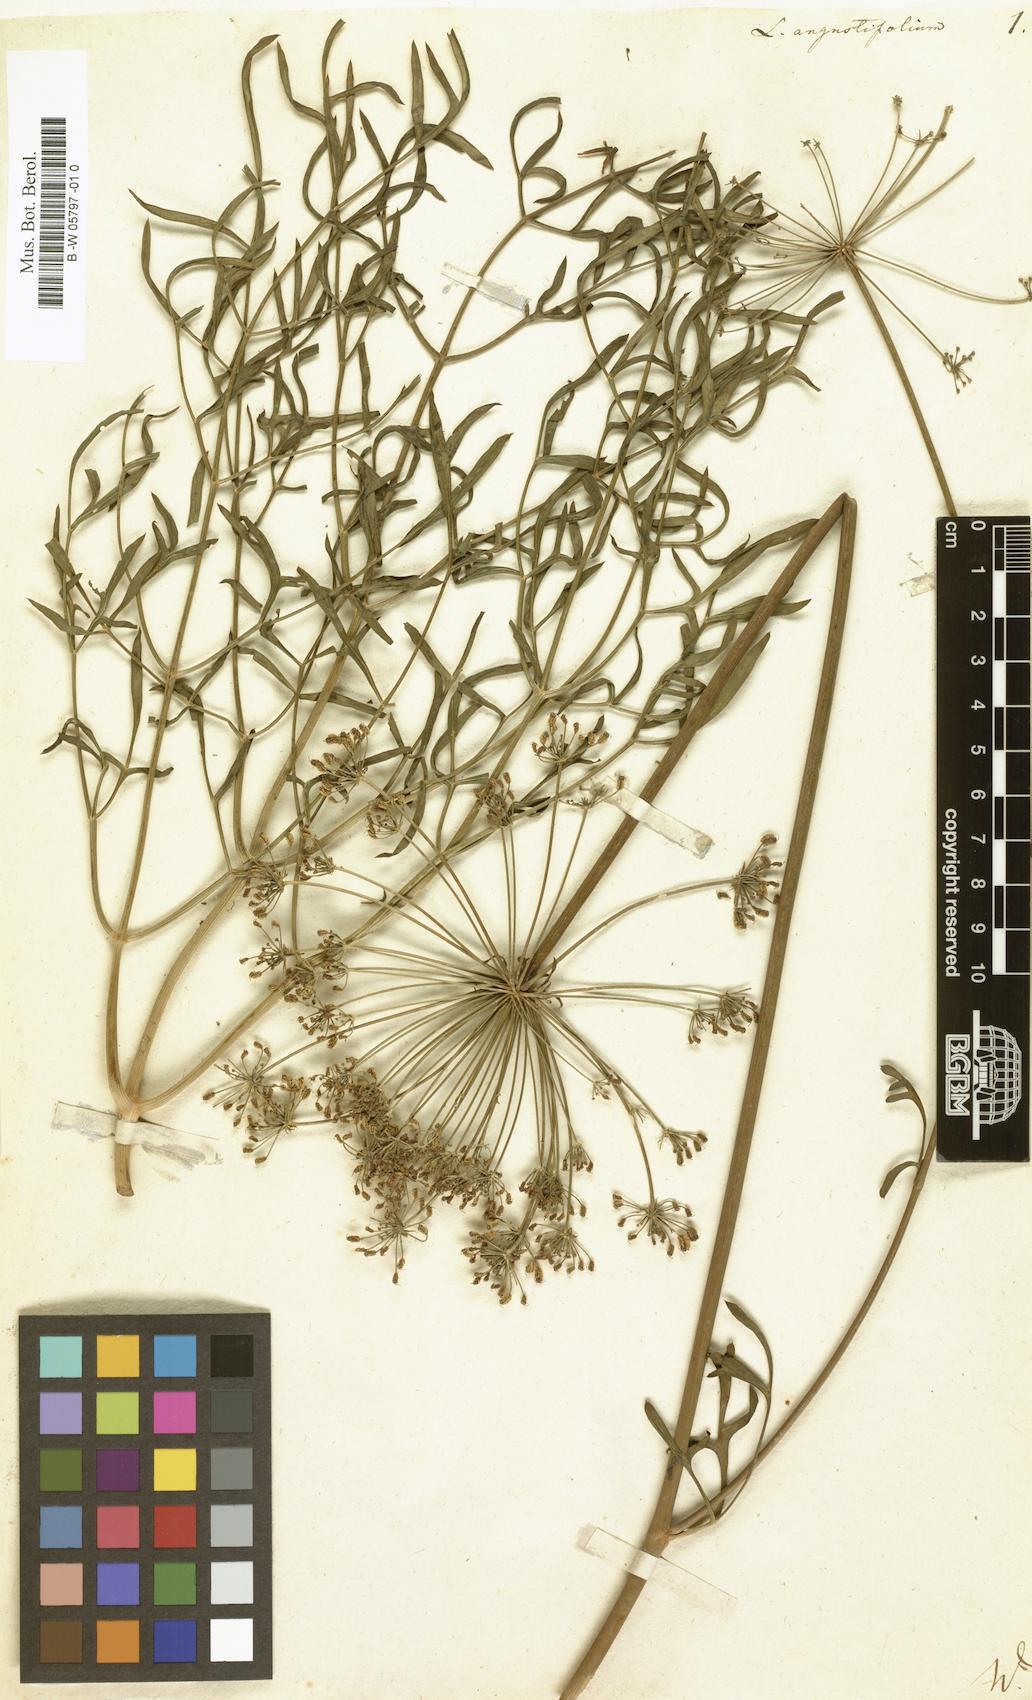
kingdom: Plantae
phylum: Tracheophyta
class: Magnoliopsida
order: Apiales
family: Apiaceae
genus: Laserpitium
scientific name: Laserpitium
